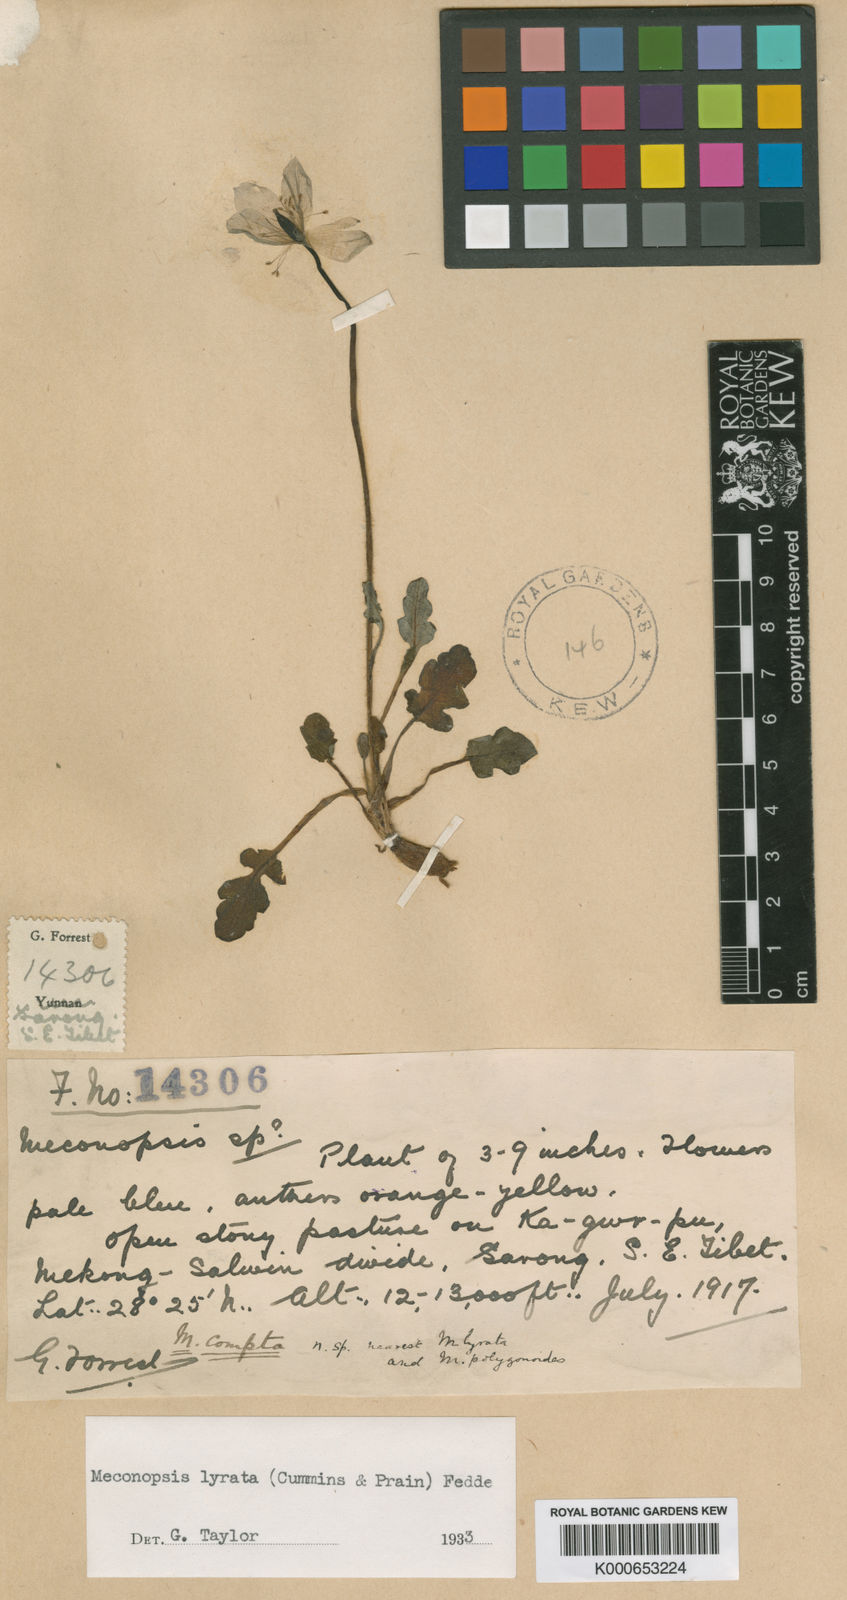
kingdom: Plantae
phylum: Tracheophyta
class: Magnoliopsida
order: Ranunculales
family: Papaveraceae
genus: Meconopsis
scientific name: Meconopsis lyrata
